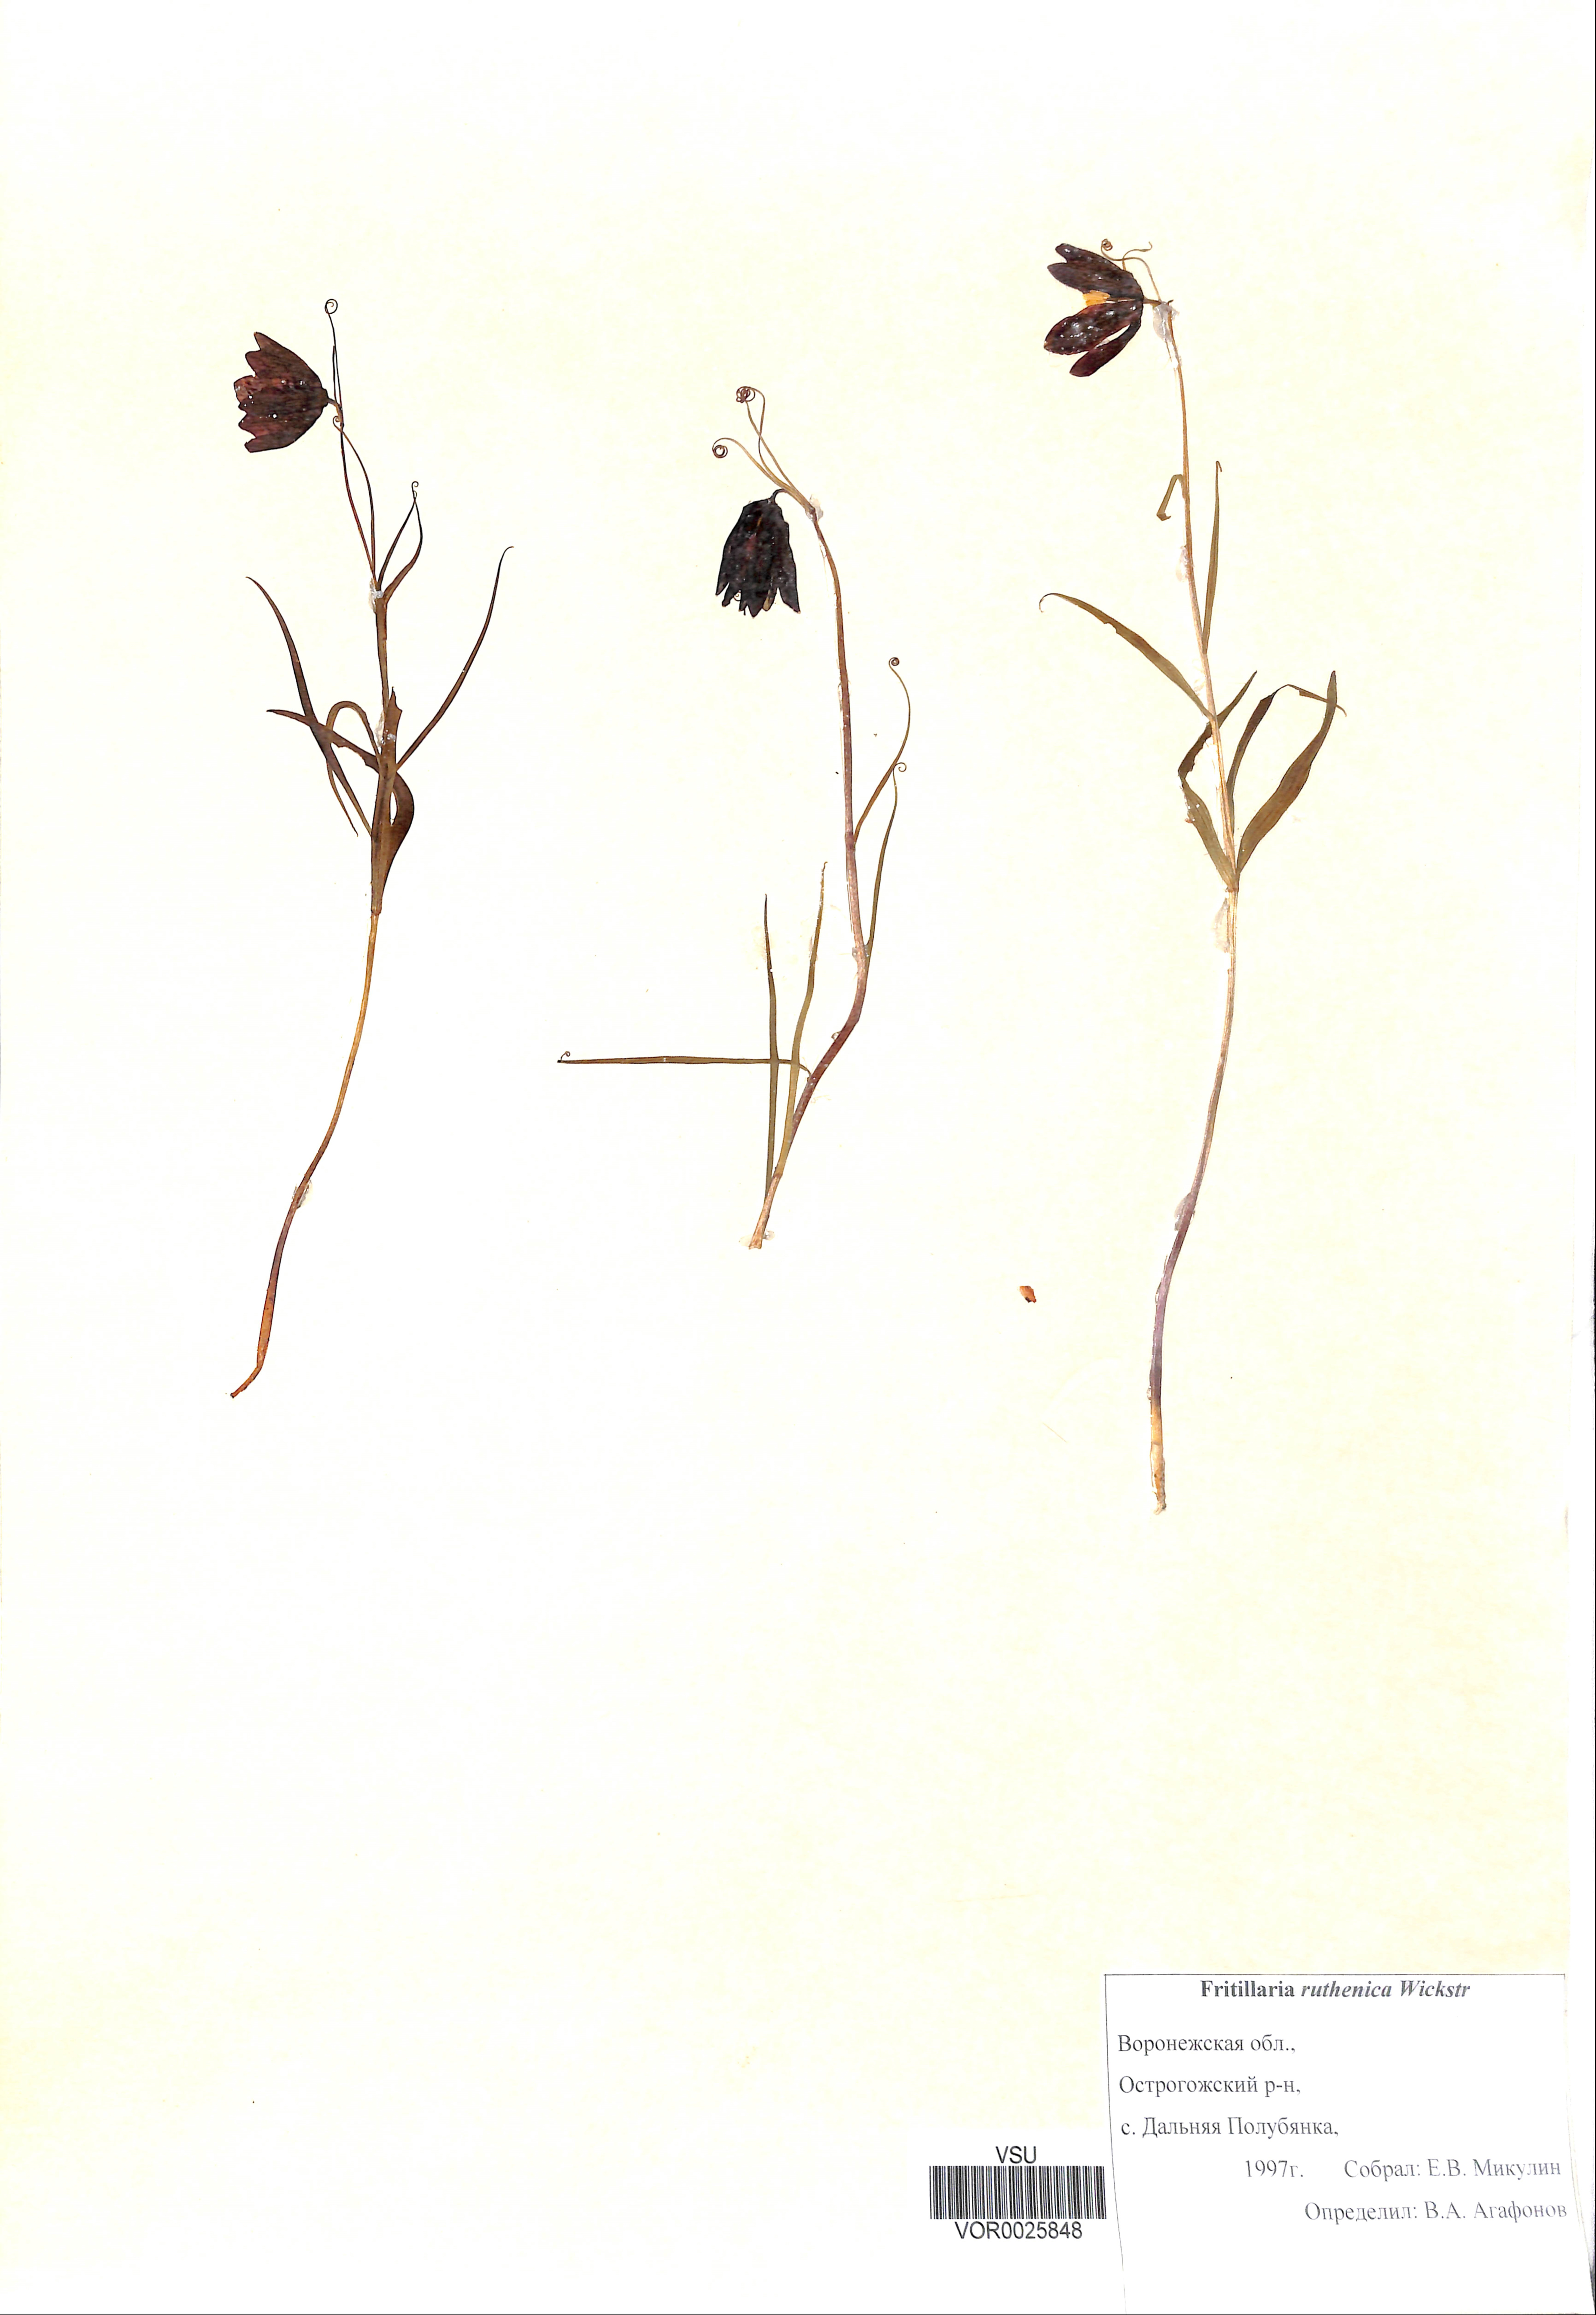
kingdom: Plantae
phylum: Tracheophyta
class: Liliopsida
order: Liliales
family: Liliaceae
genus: Fritillaria
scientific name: Fritillaria ruthenica
